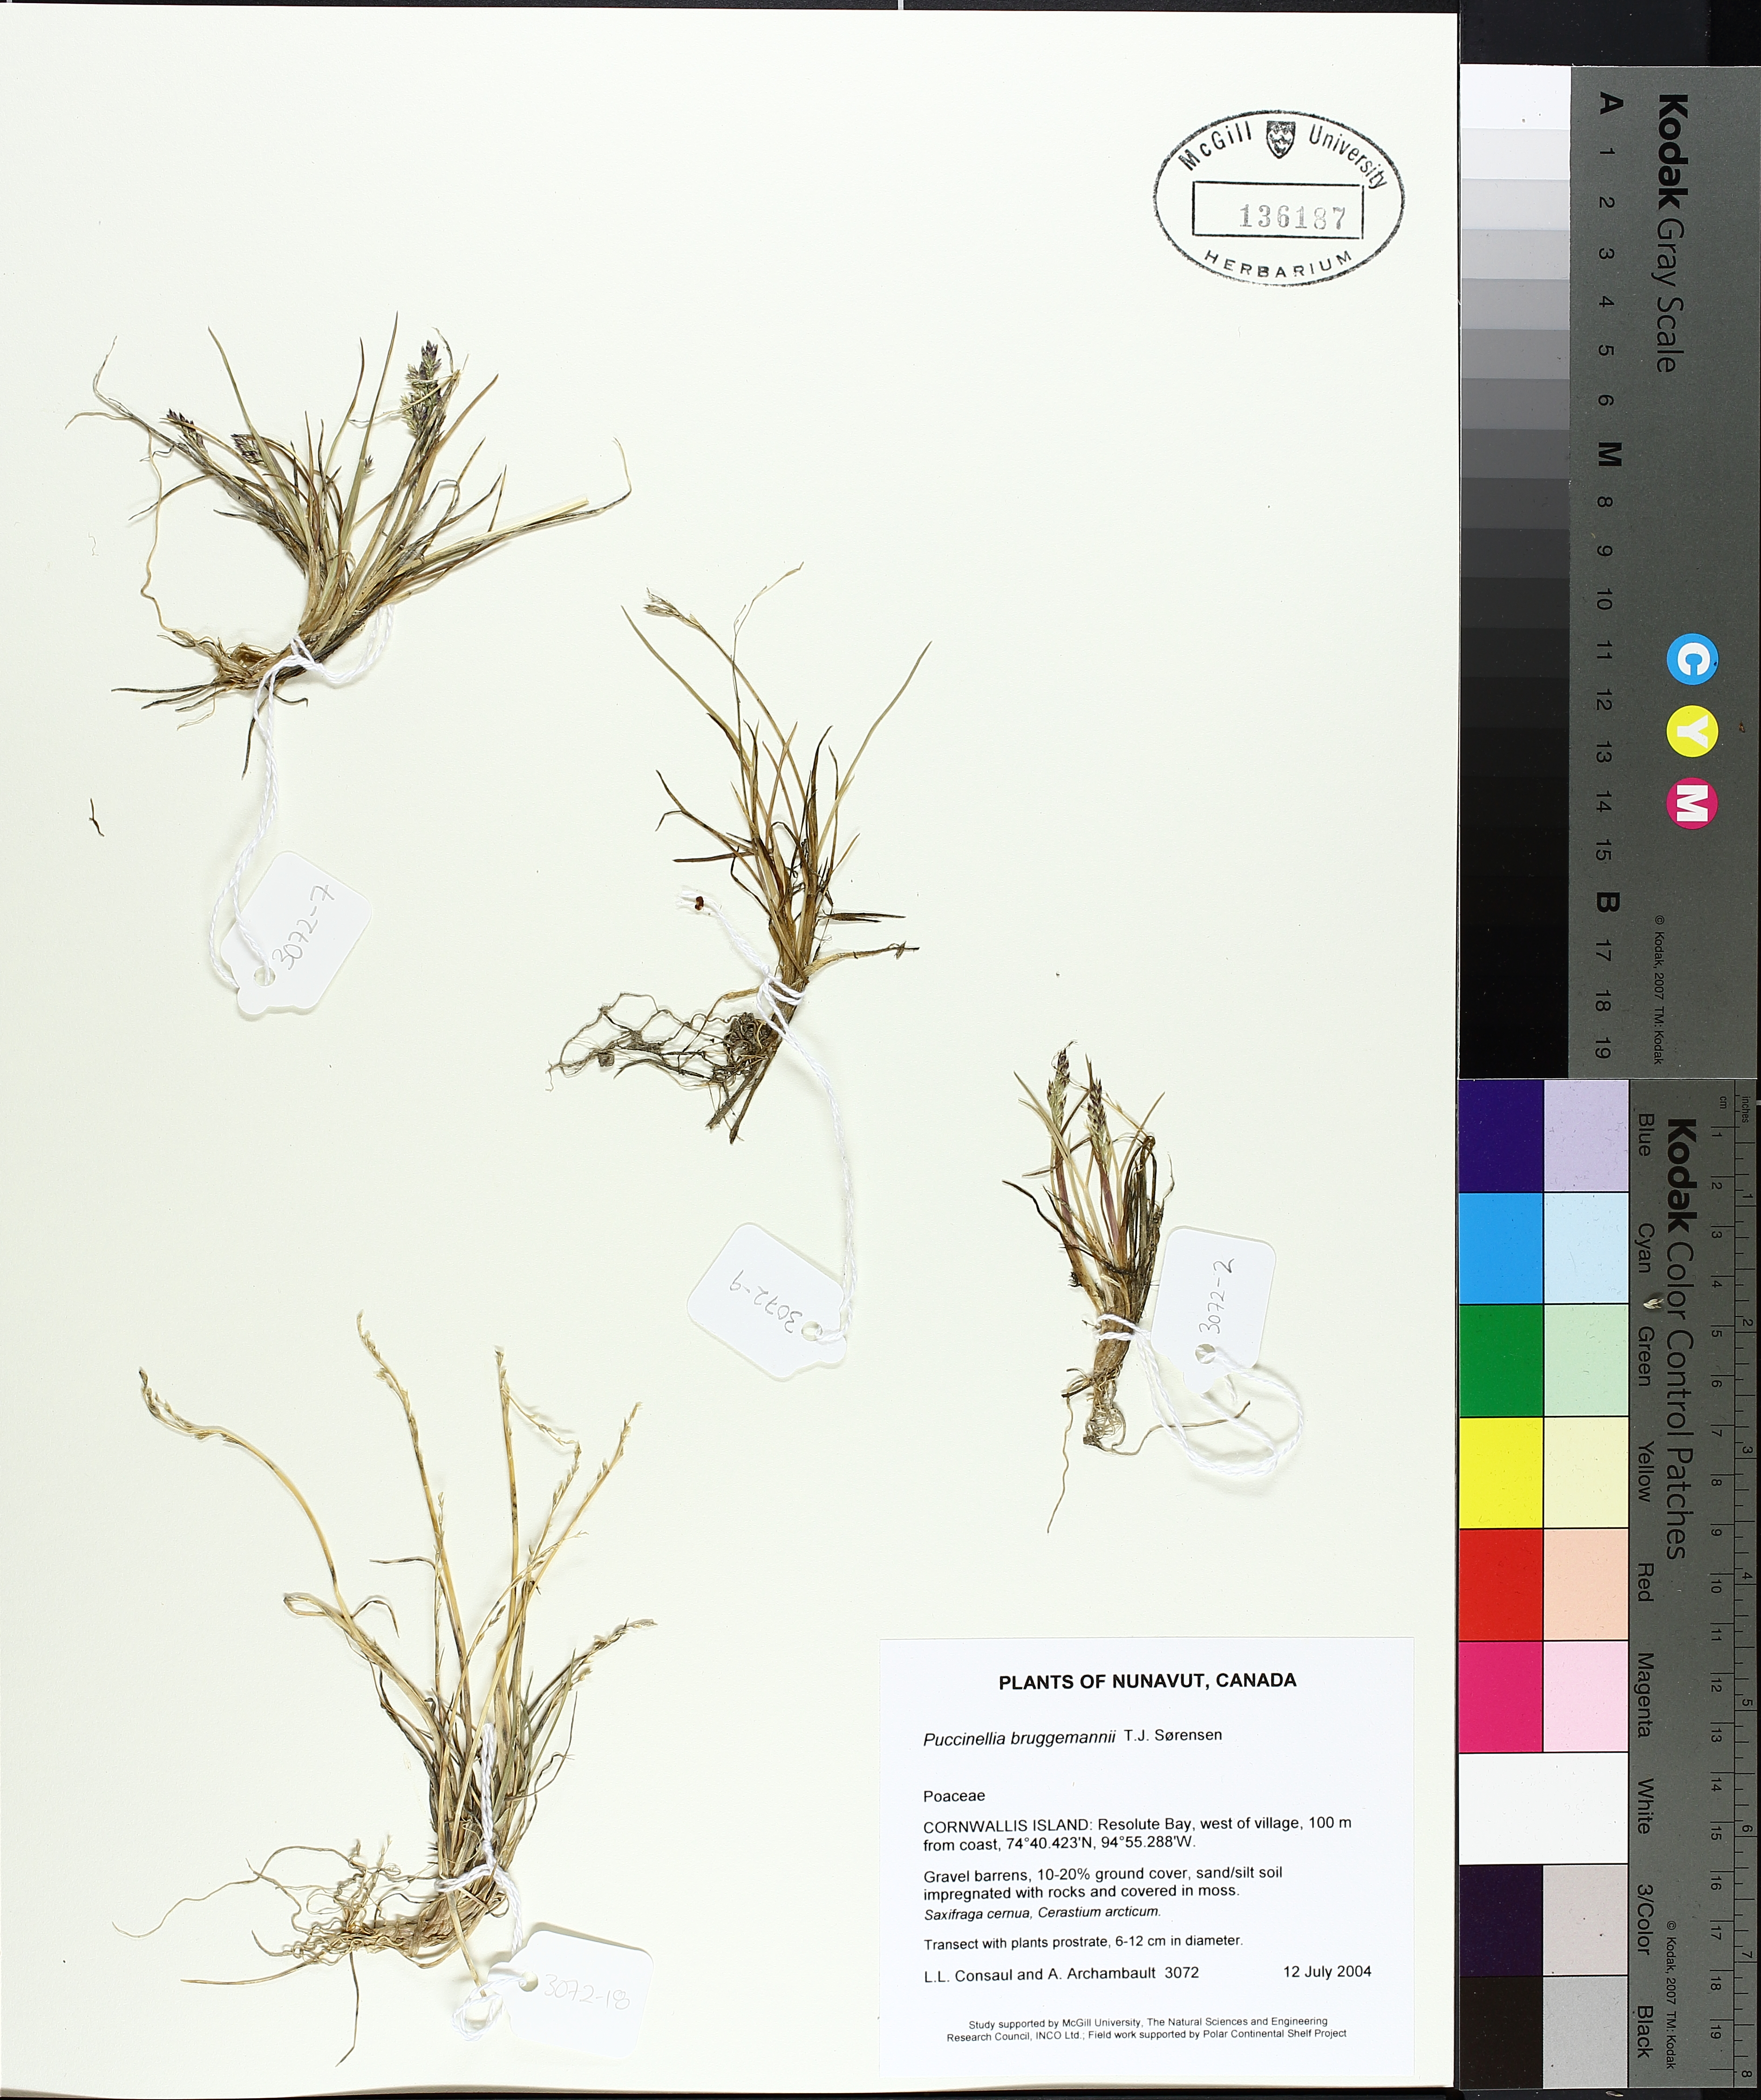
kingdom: Plantae
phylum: Tracheophyta
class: Liliopsida
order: Poales
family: Poaceae
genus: Puccinellia
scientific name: Puccinellia bruggemannii
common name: Bruggemann's alkaligrass
